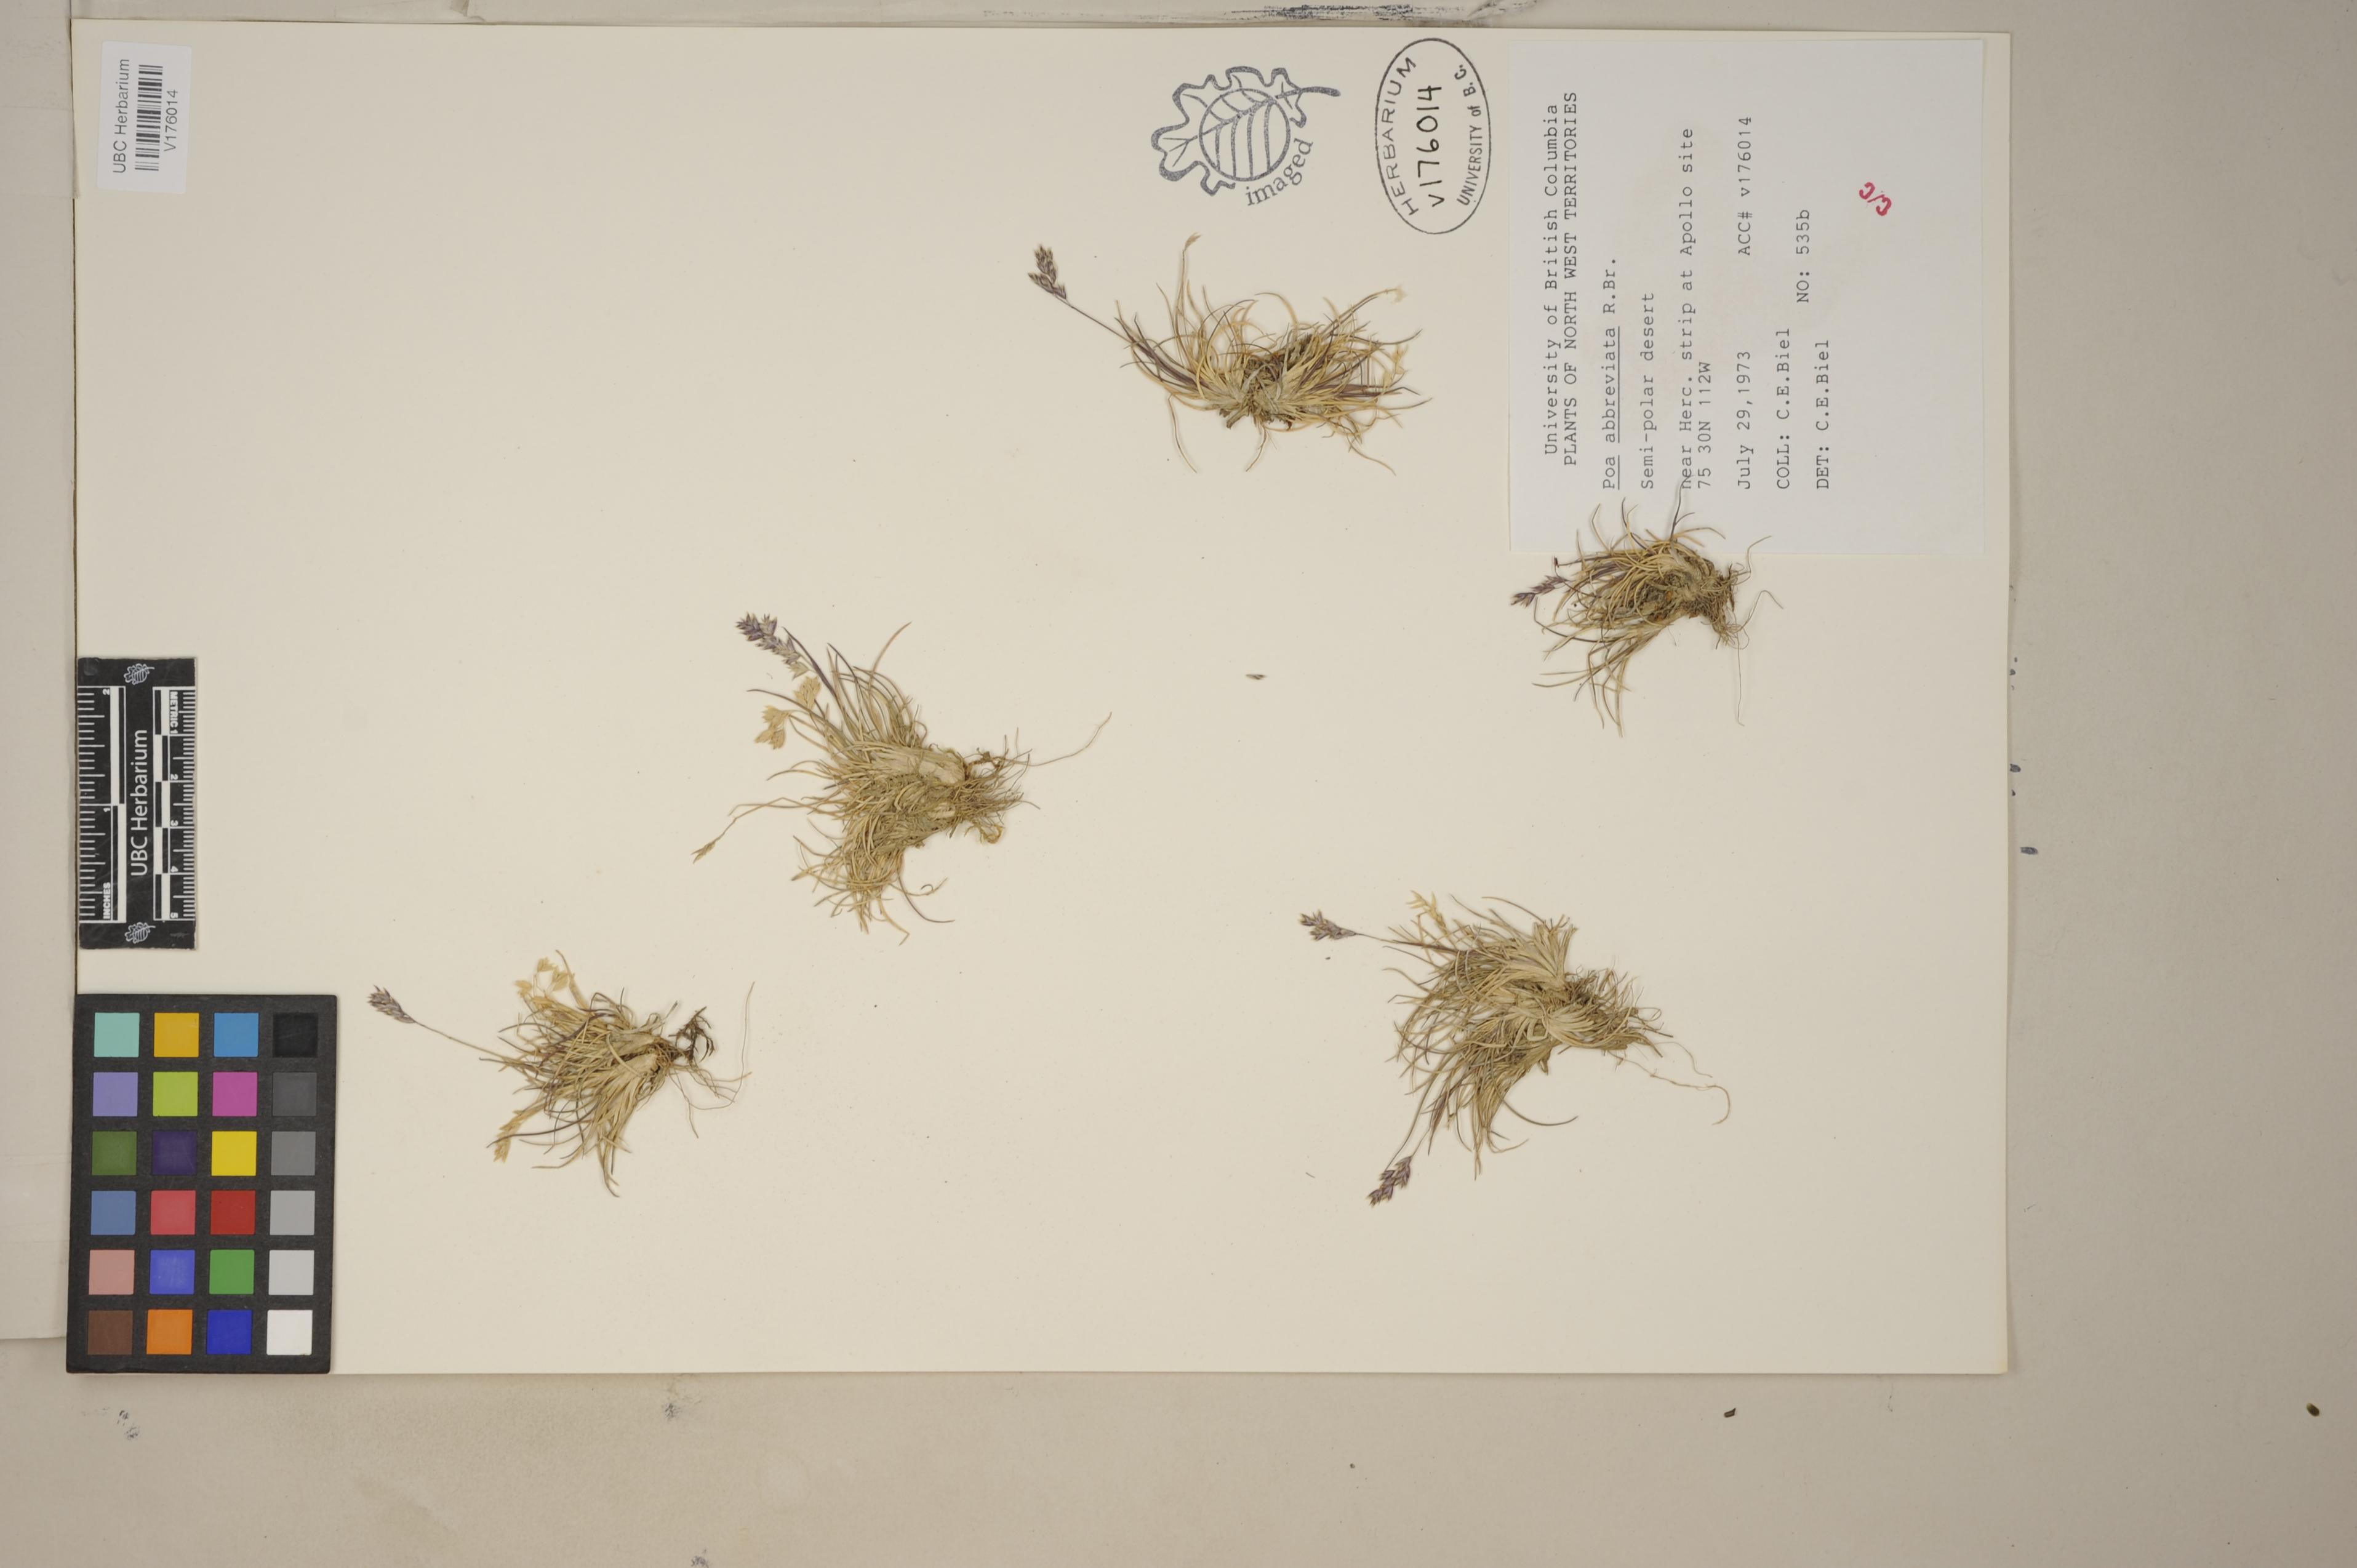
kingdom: Plantae
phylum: Tracheophyta
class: Liliopsida
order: Poales
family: Poaceae
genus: Poa
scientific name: Poa abbreviata
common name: Abbreviated bluegrass
